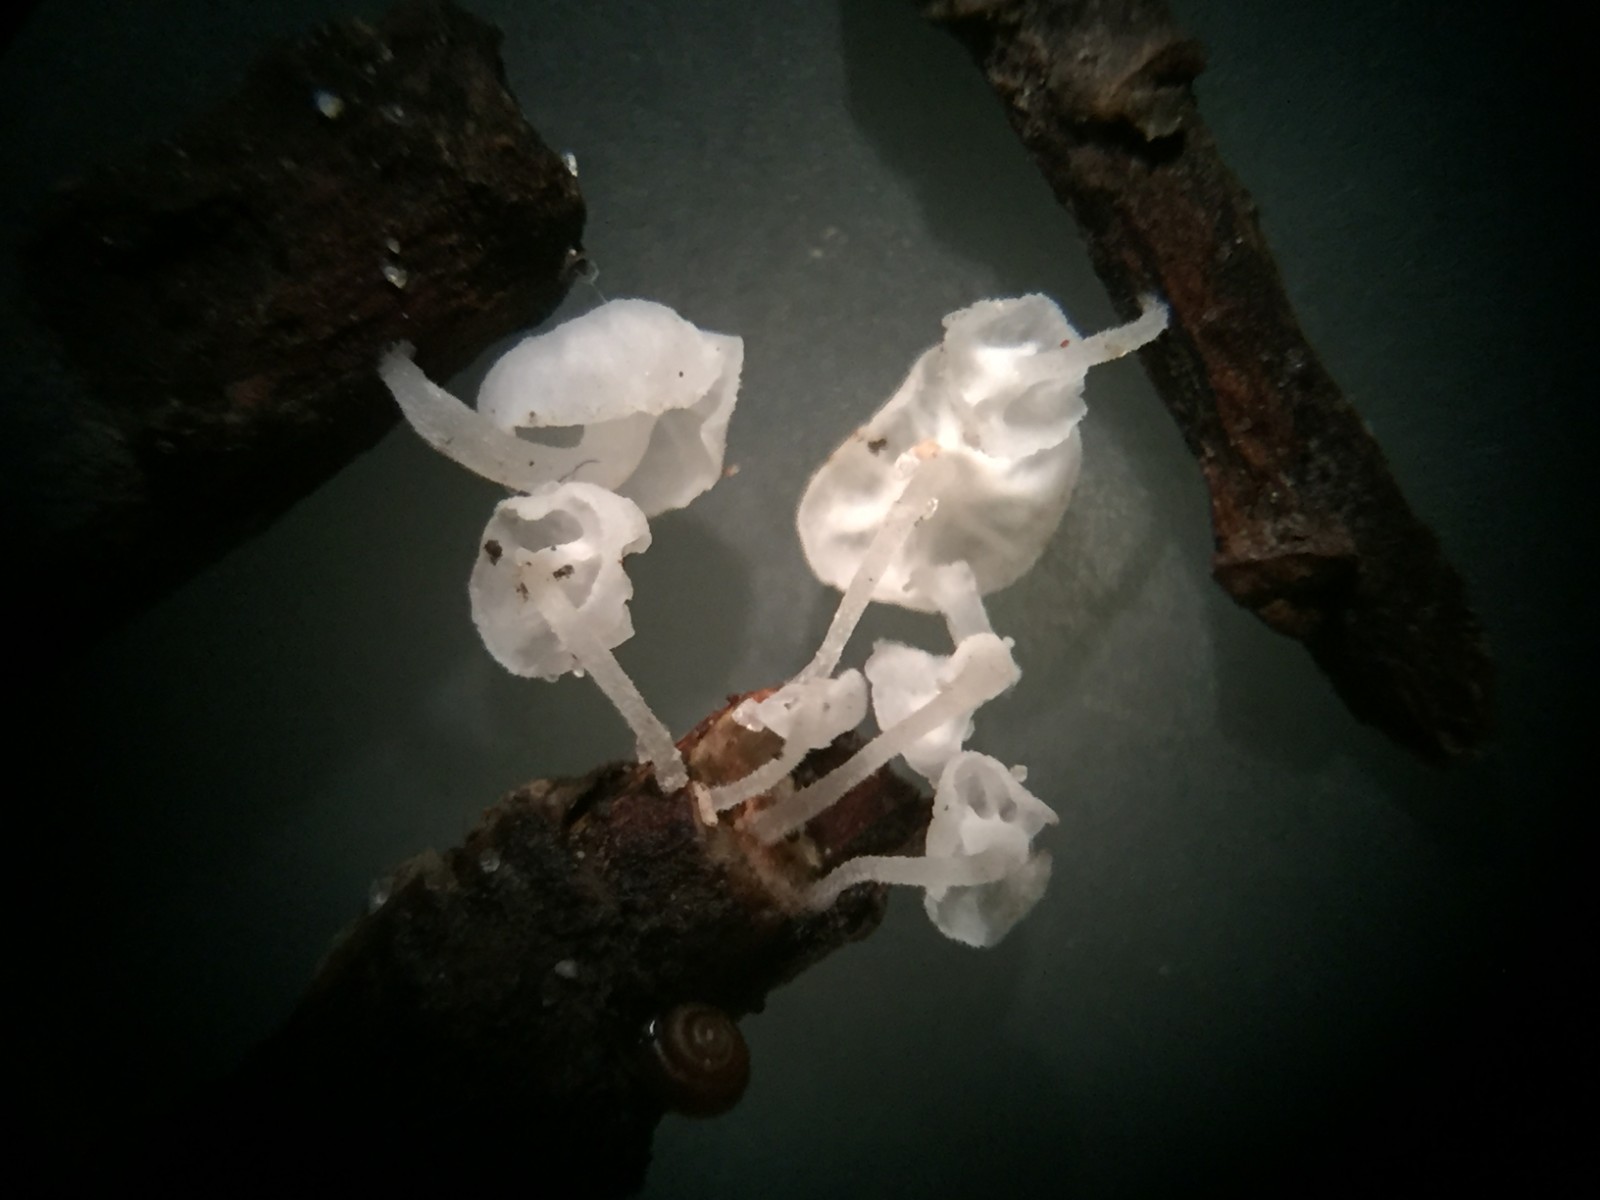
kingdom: Fungi
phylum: Basidiomycota
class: Agaricomycetes
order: Agaricales
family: Mycenaceae
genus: Hemimycena
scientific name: Hemimycena hirsuta
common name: håret huesvamp
